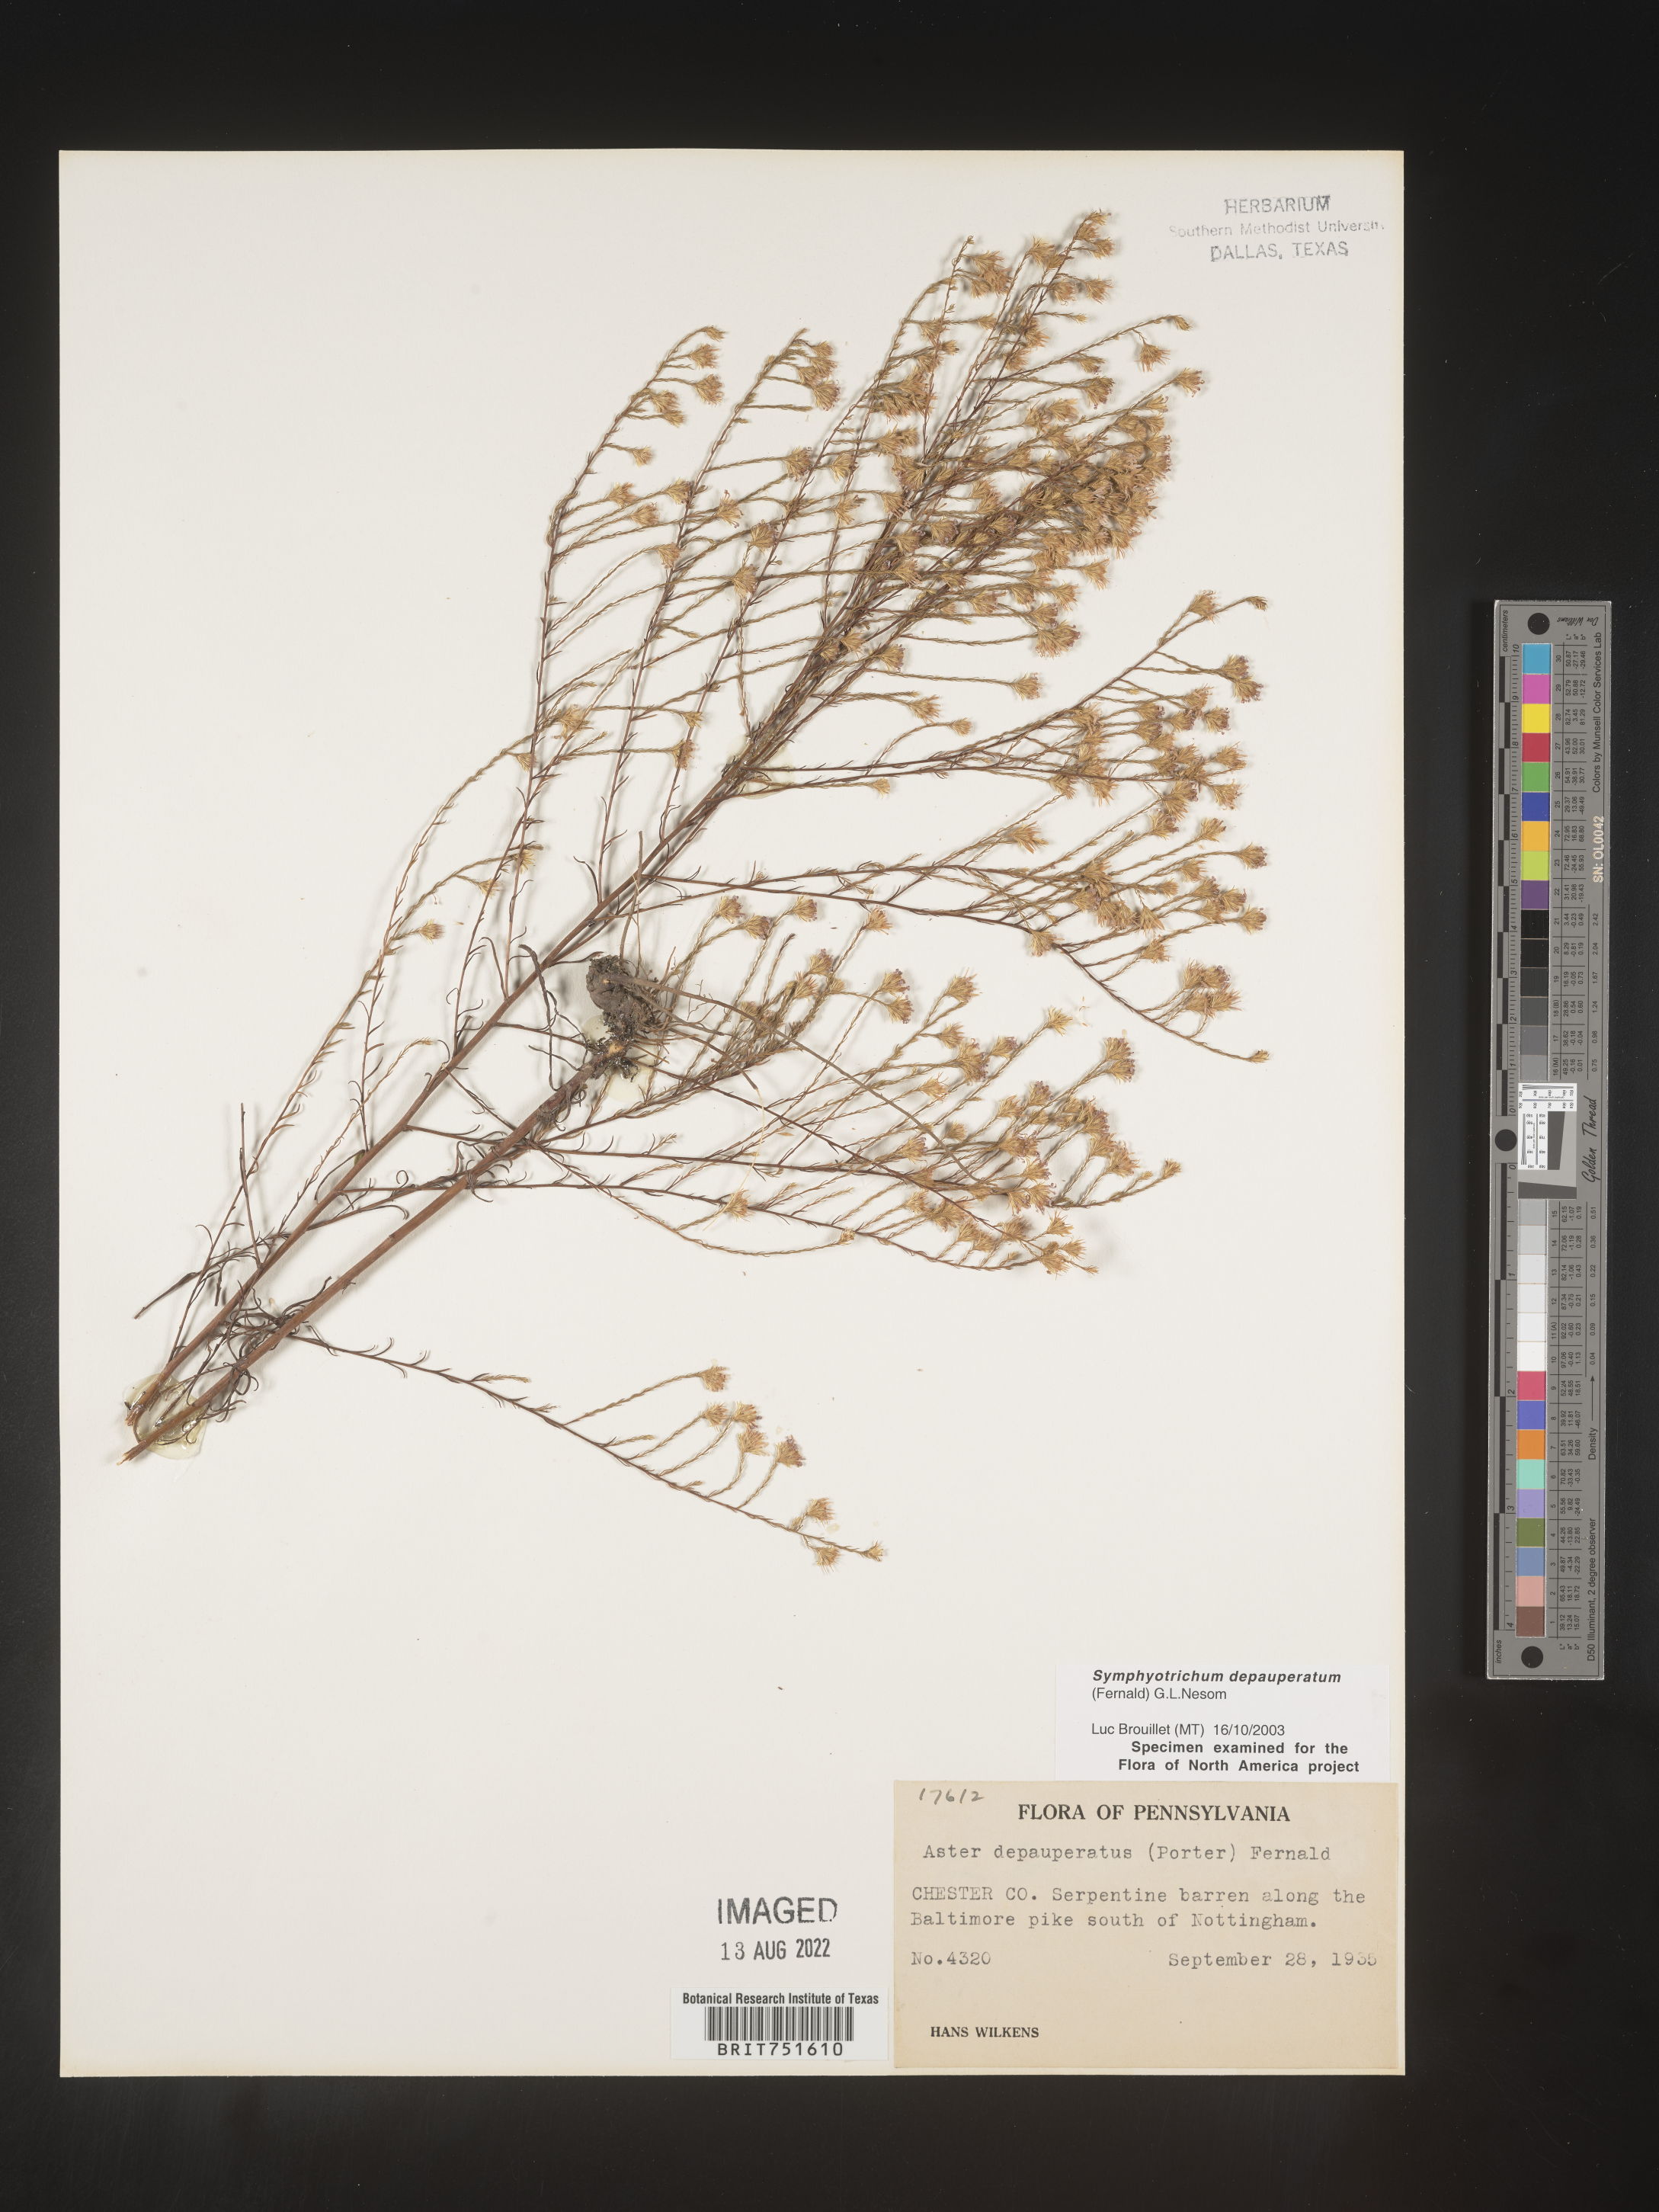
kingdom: Plantae
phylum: Tracheophyta
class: Magnoliopsida
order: Asterales
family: Asteraceae
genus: Symphyotrichum
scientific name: Symphyotrichum depauperatum
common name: Serpentine aster
